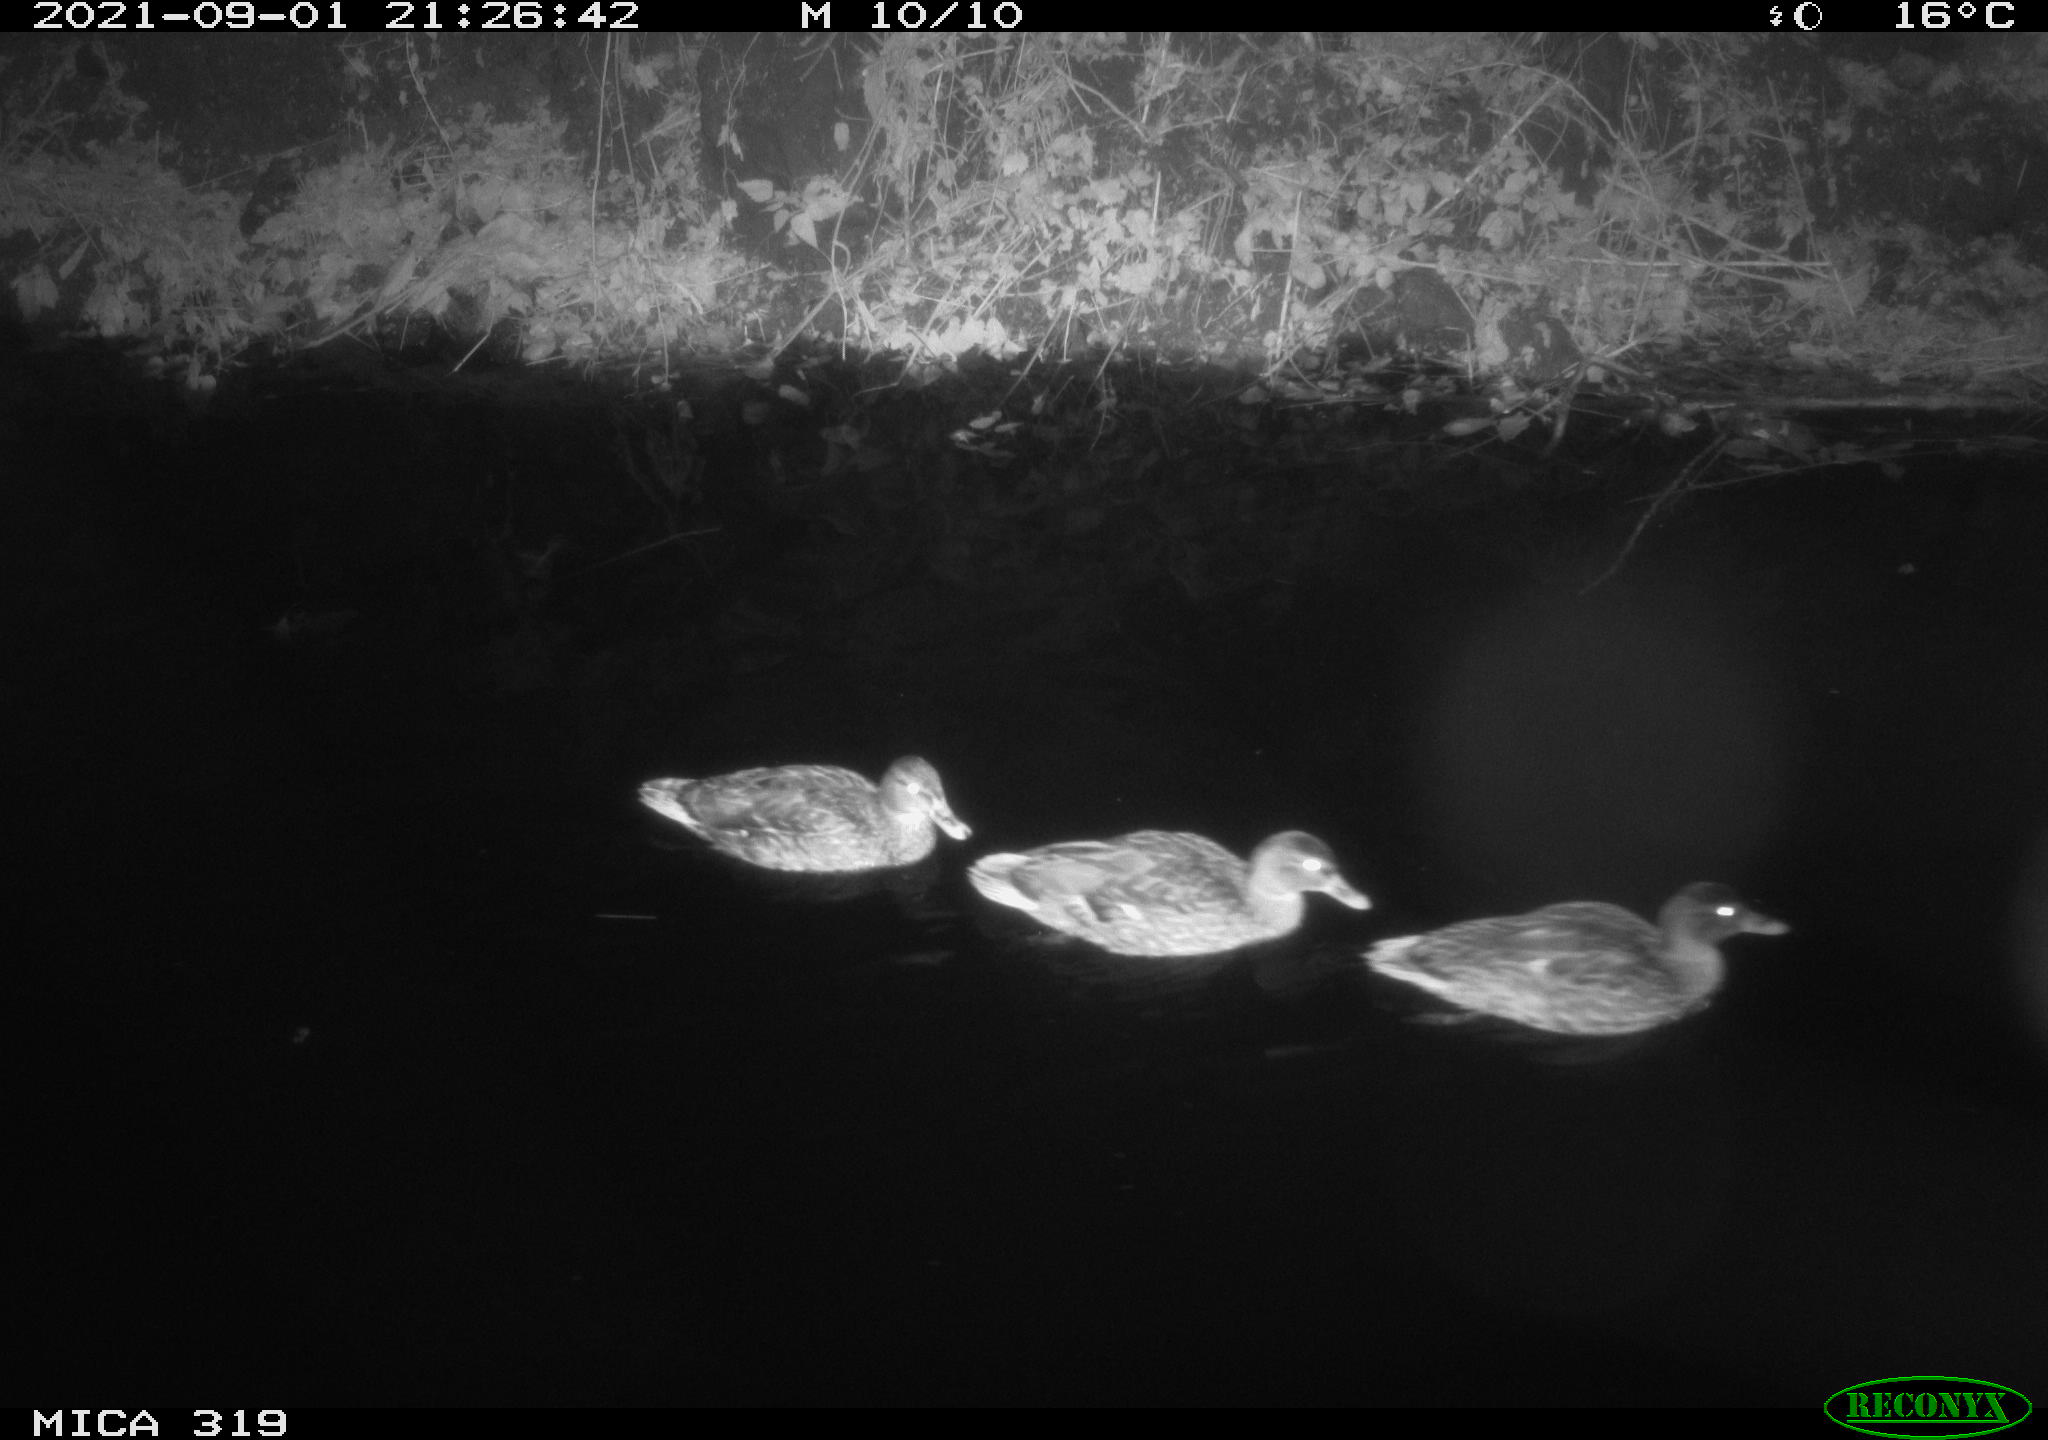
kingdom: Animalia
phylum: Chordata
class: Aves
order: Anseriformes
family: Anatidae
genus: Anas
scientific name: Anas platyrhynchos
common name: Mallard
